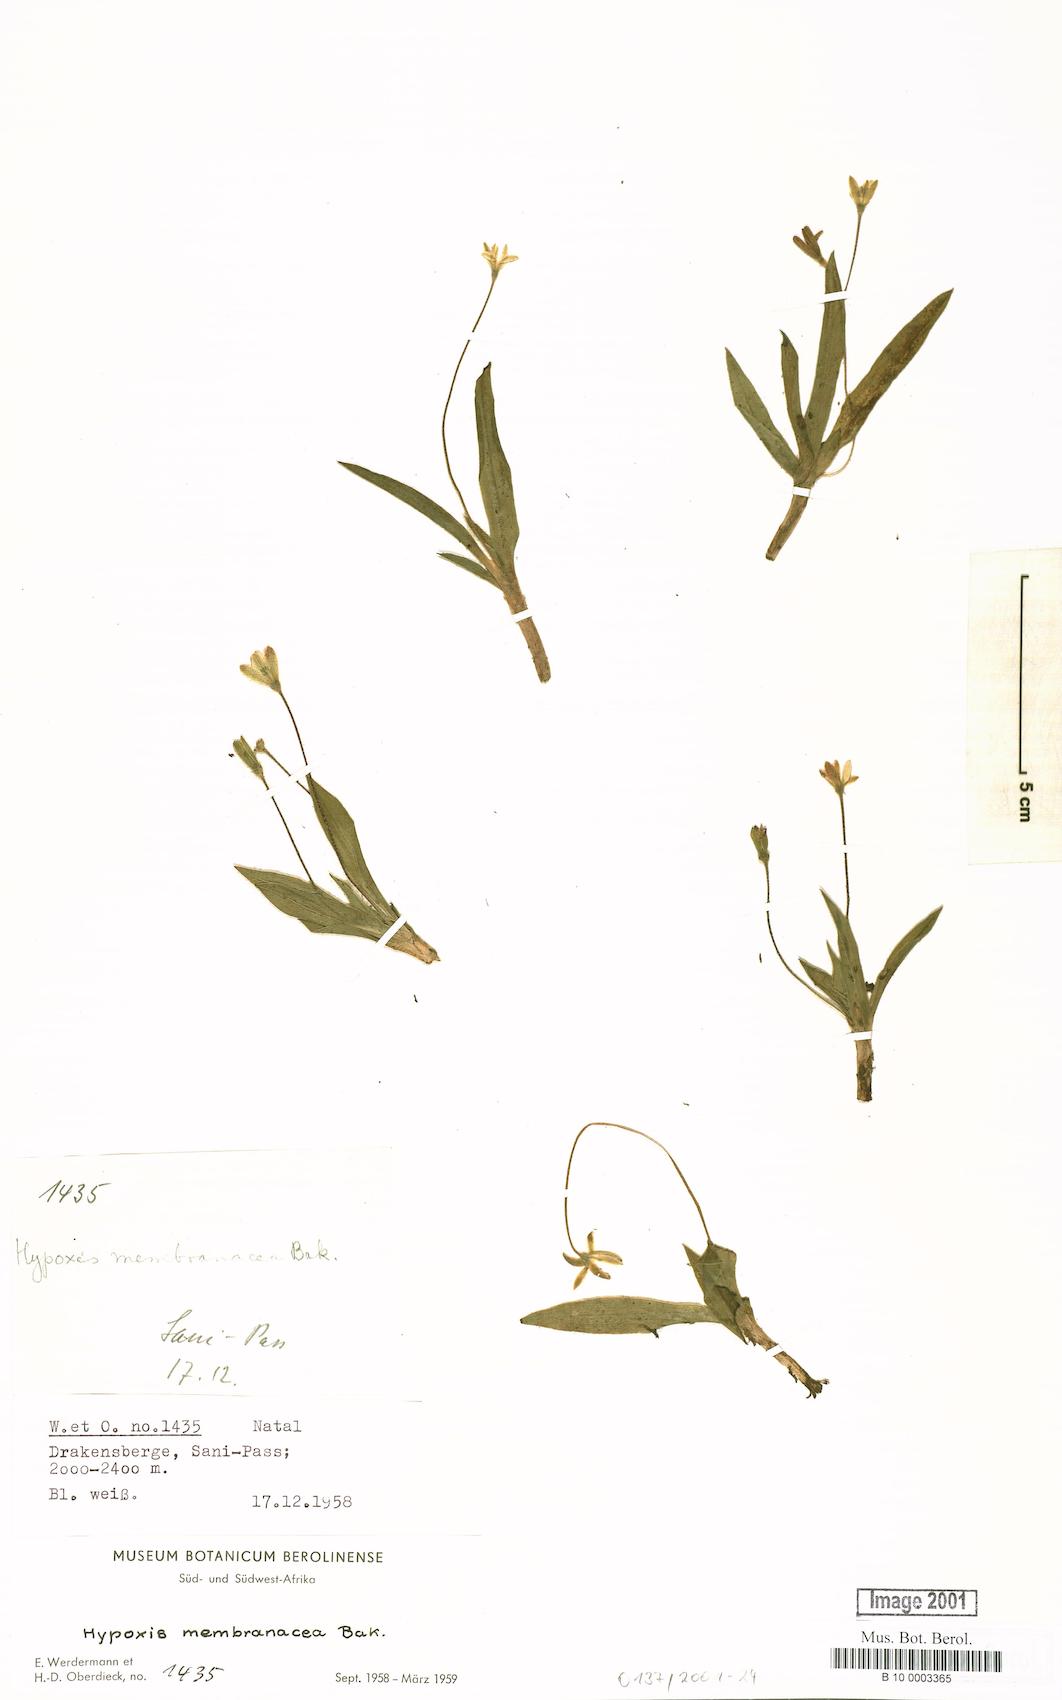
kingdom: Plantae
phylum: Tracheophyta
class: Liliopsida
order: Asparagales
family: Hypoxidaceae
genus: Hypoxis
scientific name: Hypoxis membranacea
